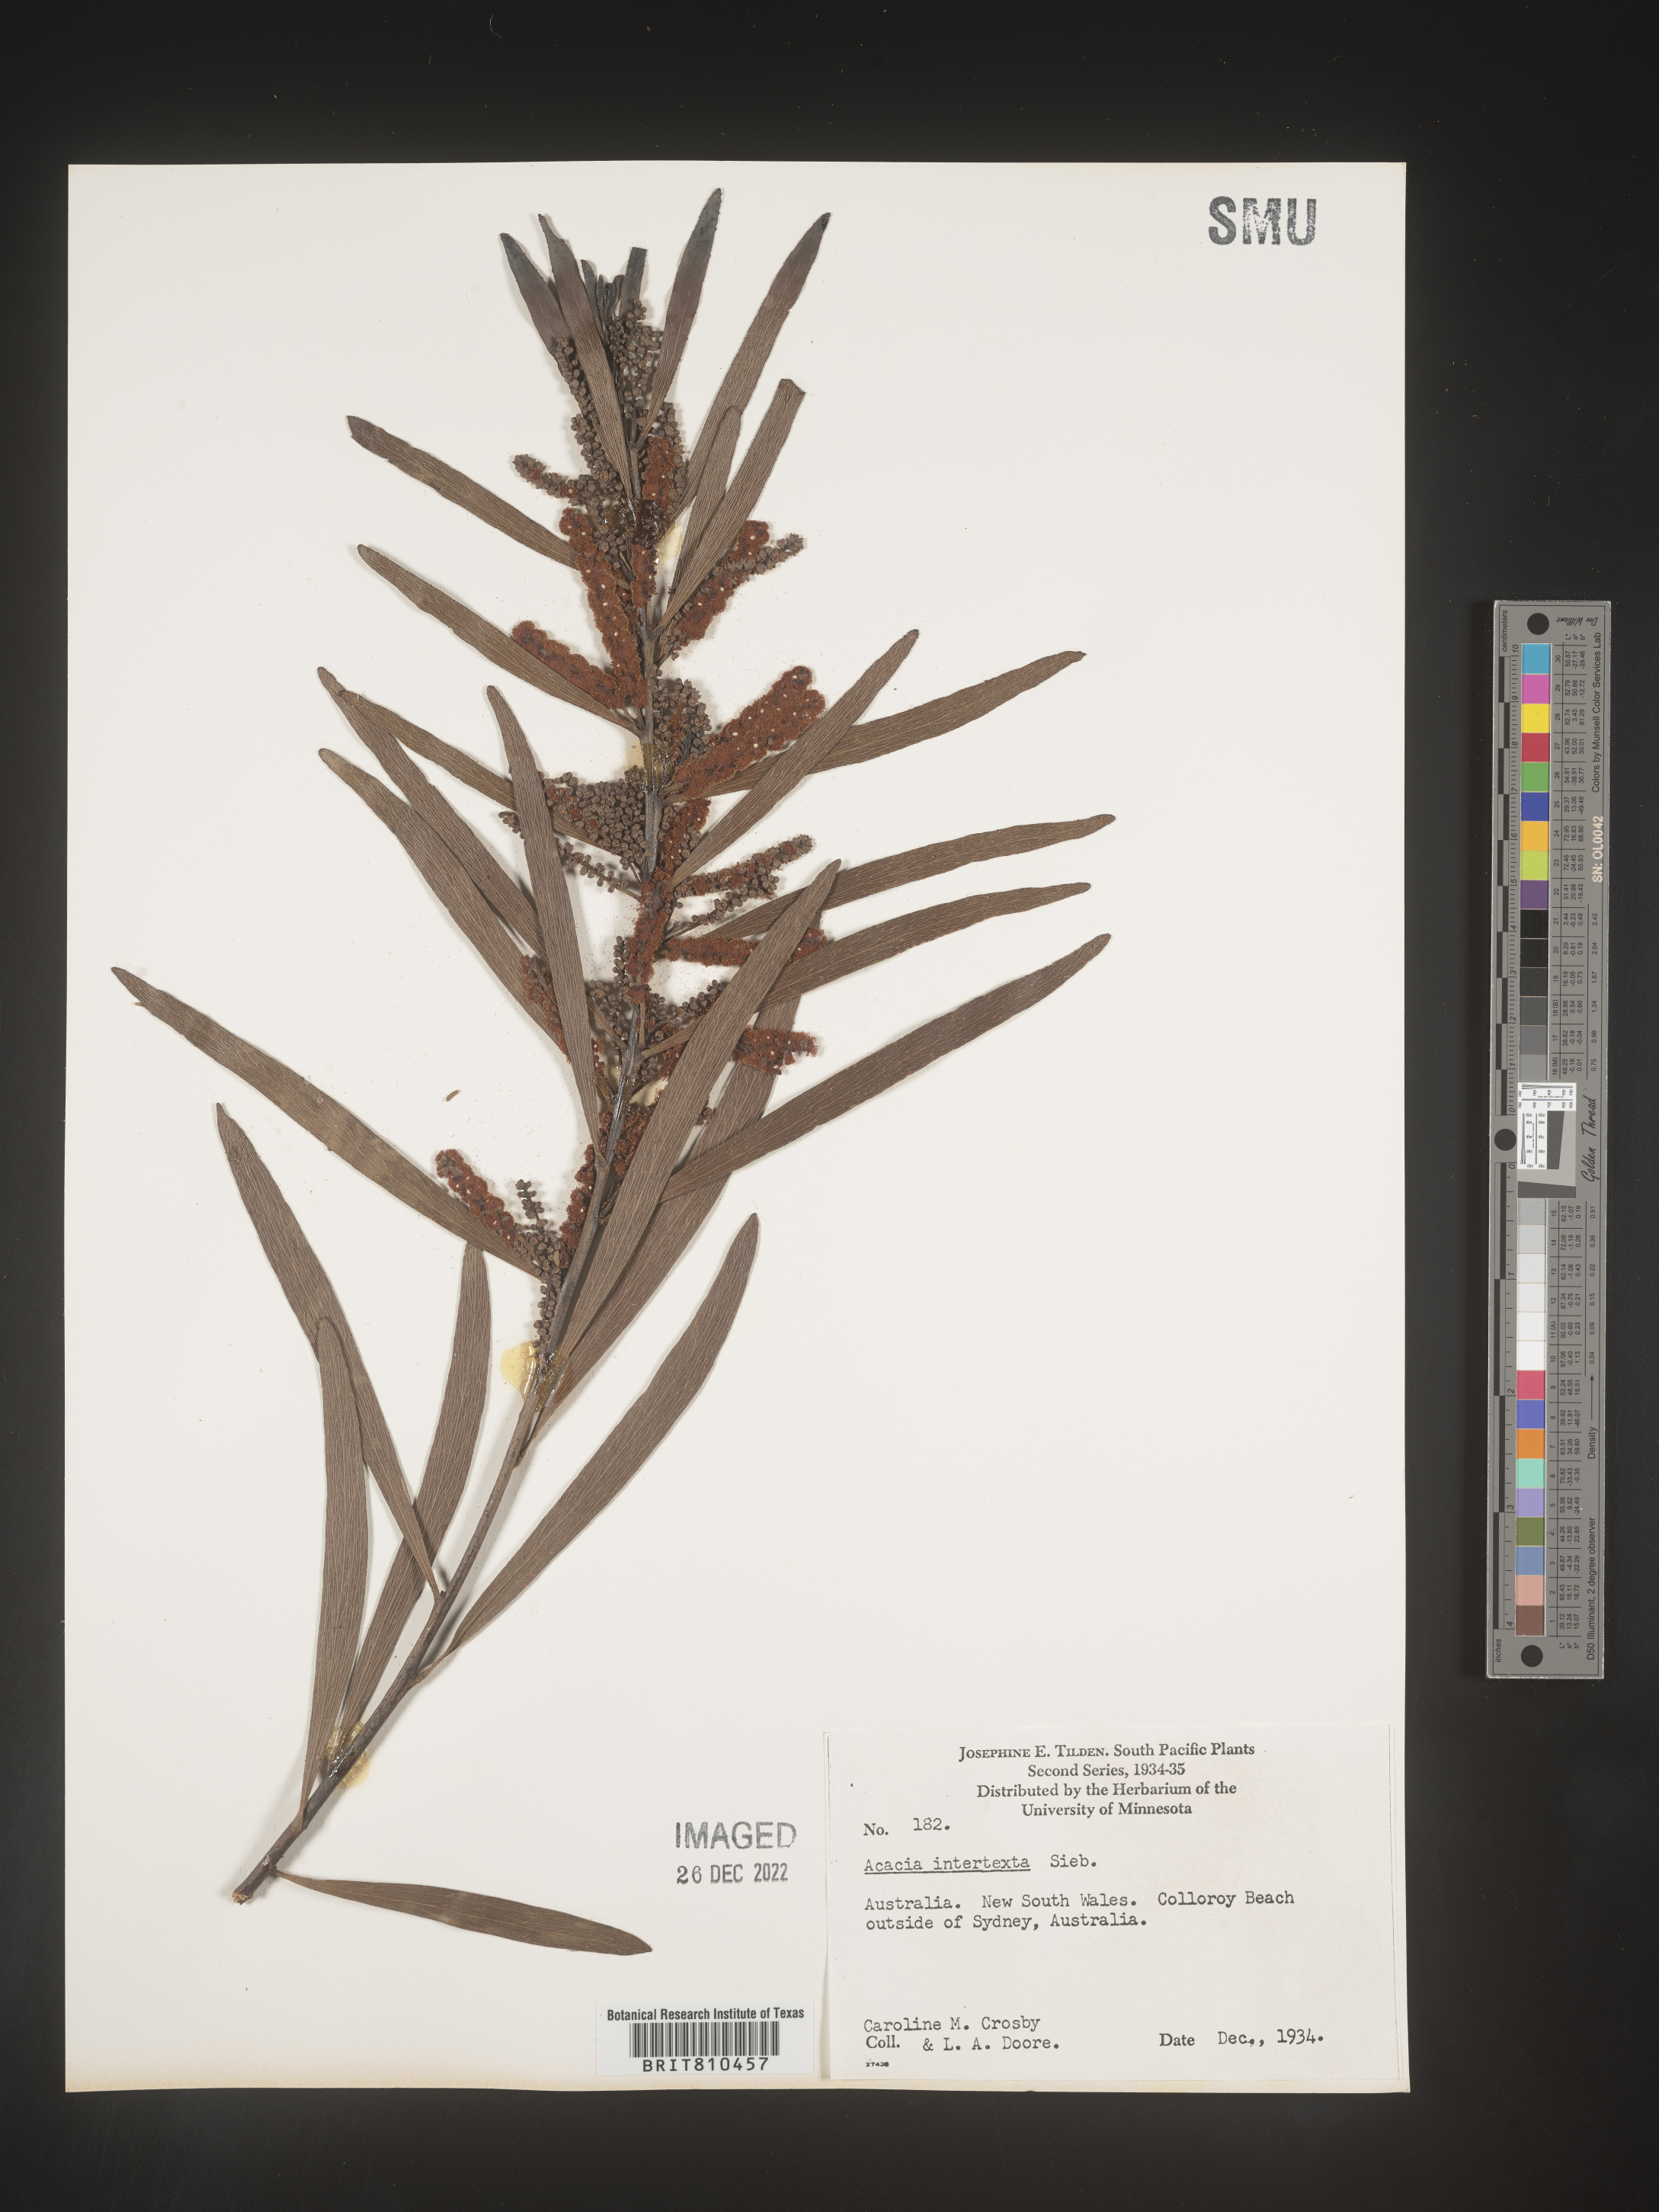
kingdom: Plantae
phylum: Tracheophyta
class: Magnoliopsida
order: Fabales
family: Fabaceae
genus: Acacia
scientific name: Acacia
